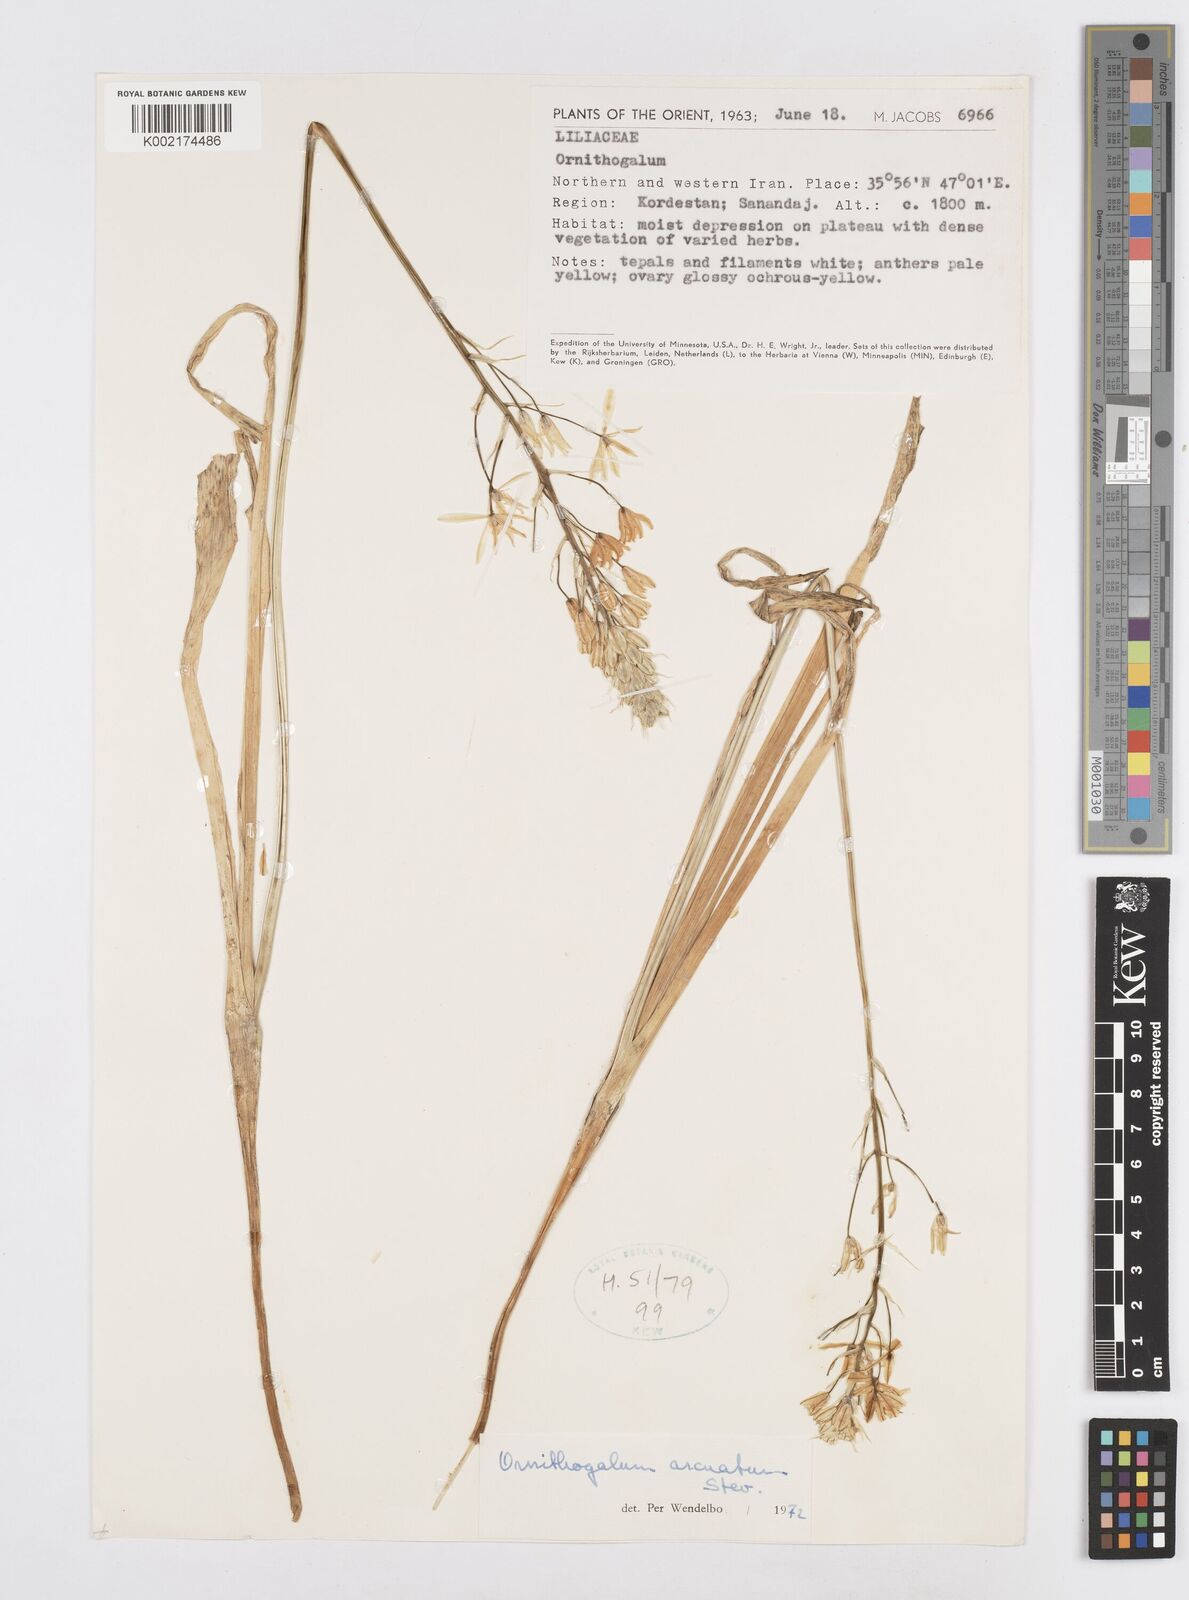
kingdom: Plantae
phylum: Tracheophyta
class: Liliopsida
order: Asparagales
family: Asparagaceae
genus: Ornithogalum
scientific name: Ornithogalum narbonense
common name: Bath-asparagus
